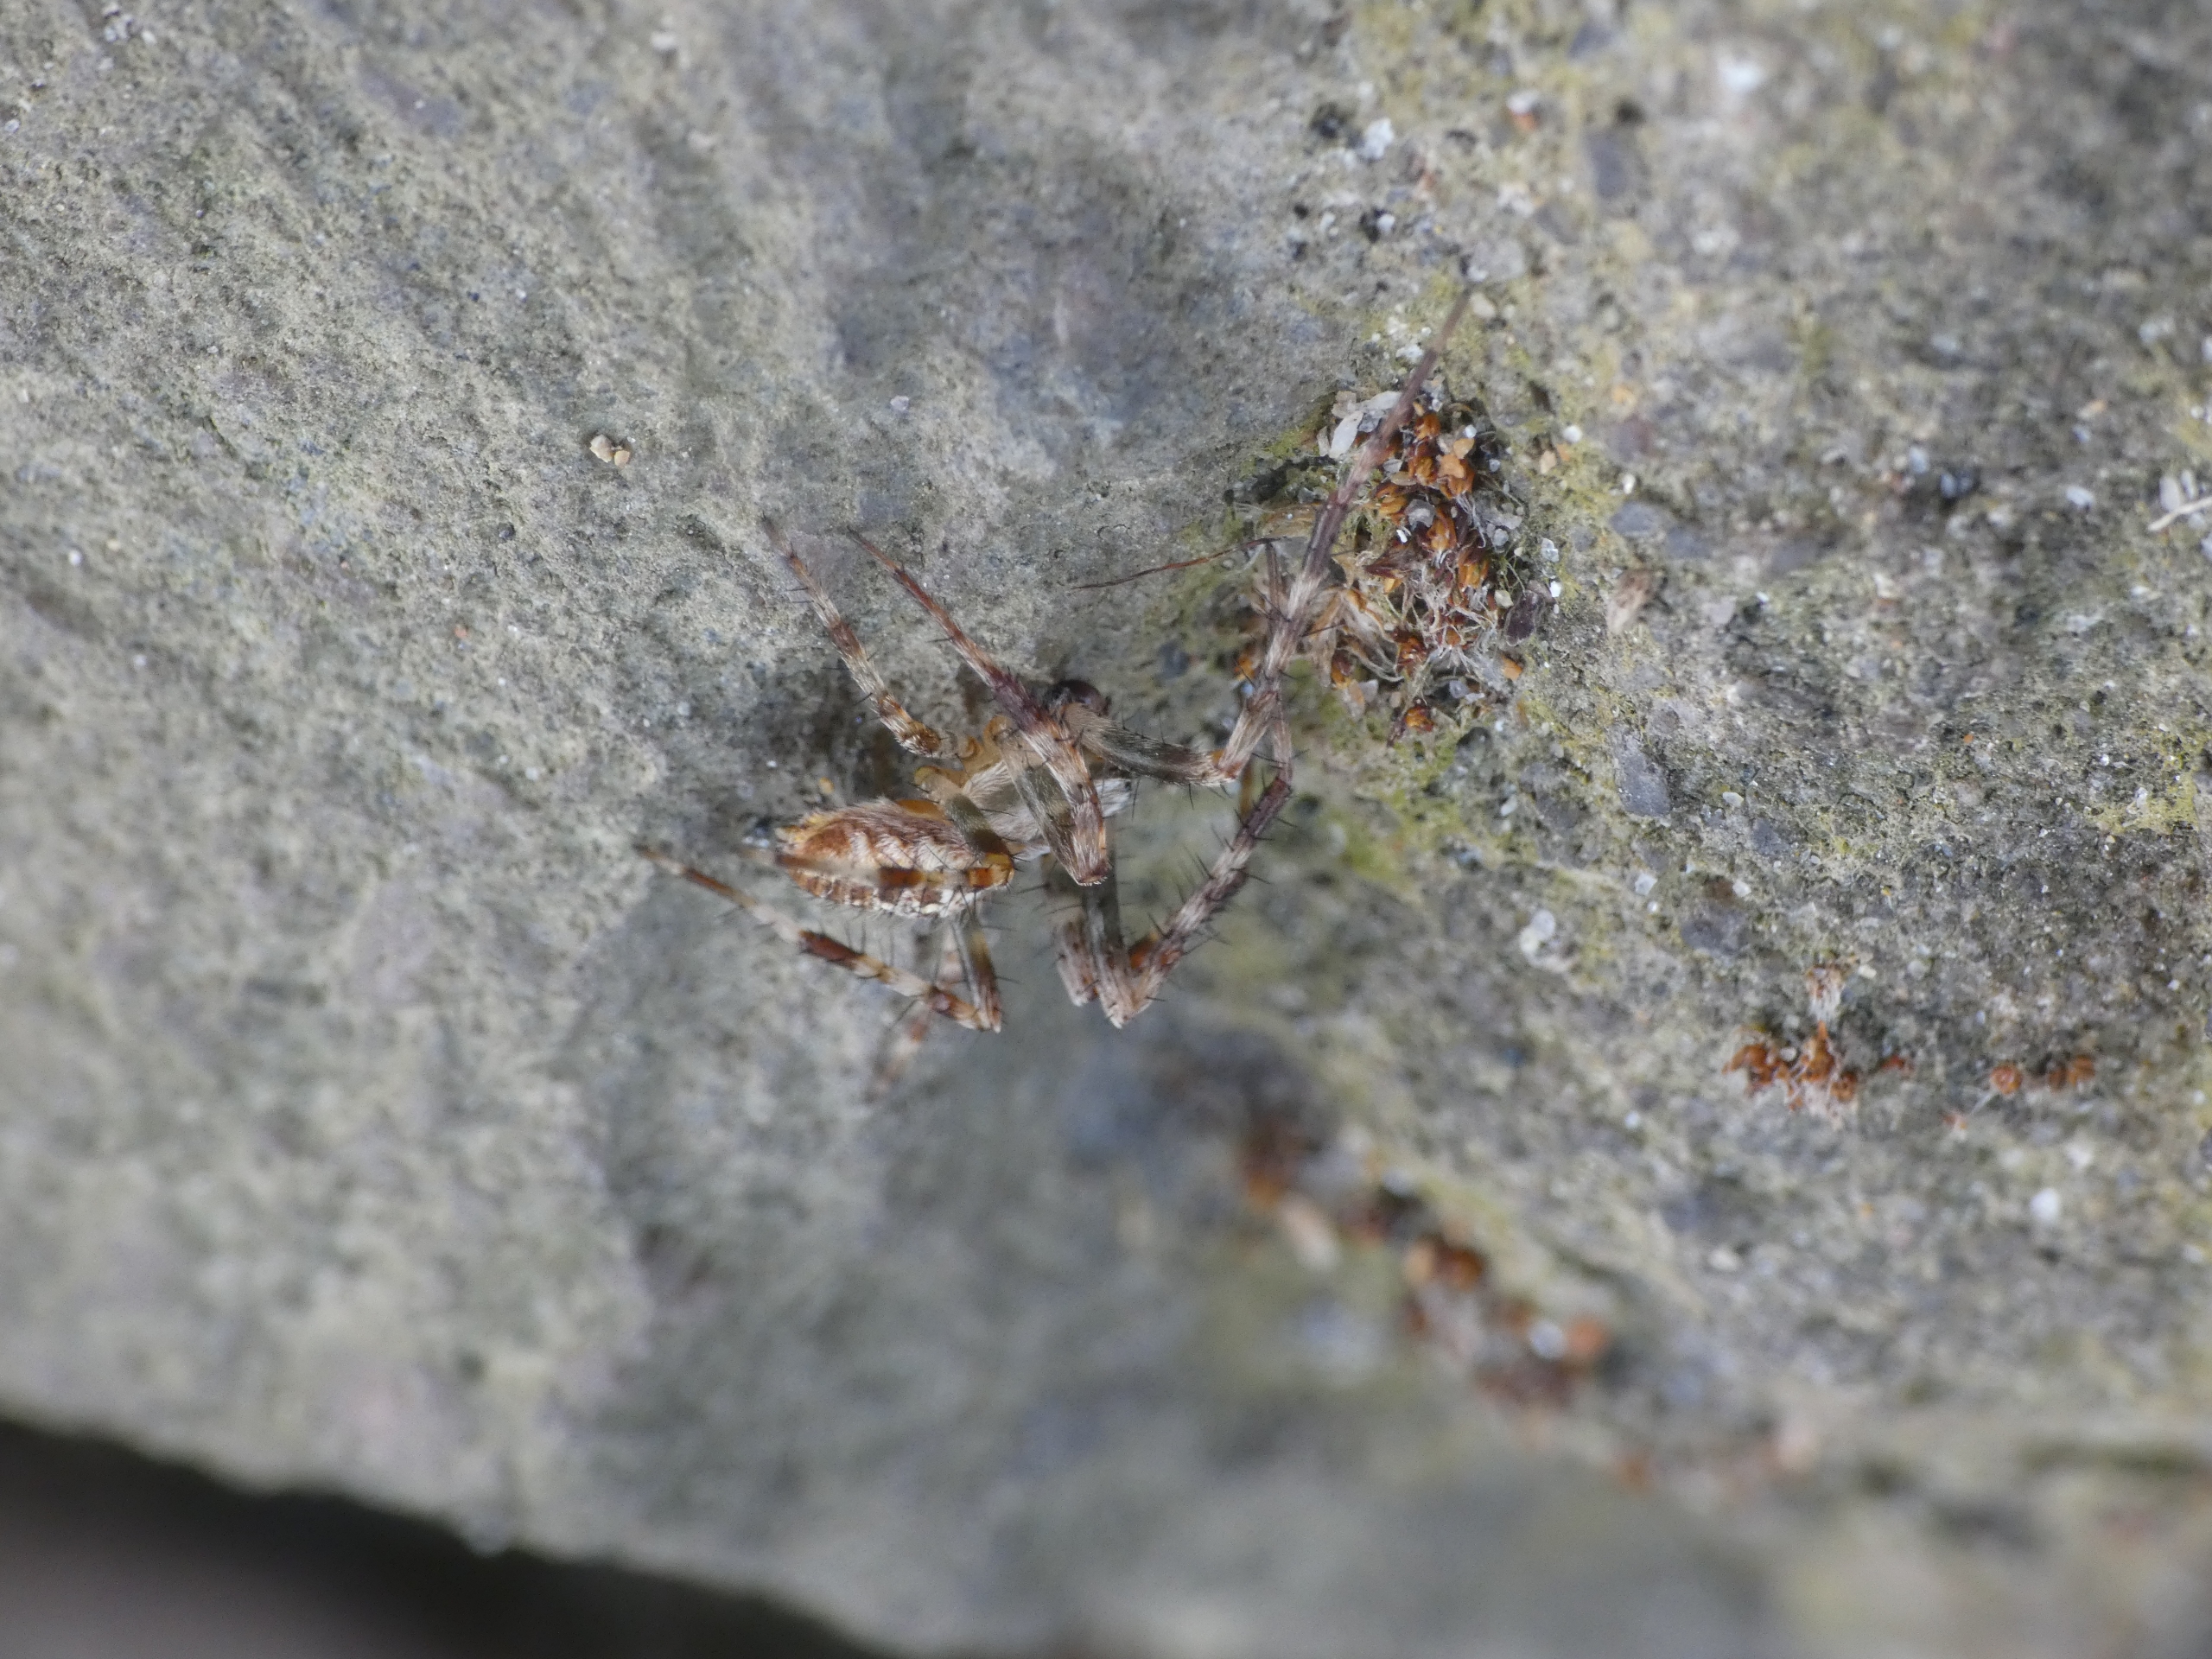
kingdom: Animalia
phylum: Arthropoda
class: Arachnida
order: Araneae
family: Araneidae
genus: Araneus
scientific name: Araneus diadematus
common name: Korsedderkop
